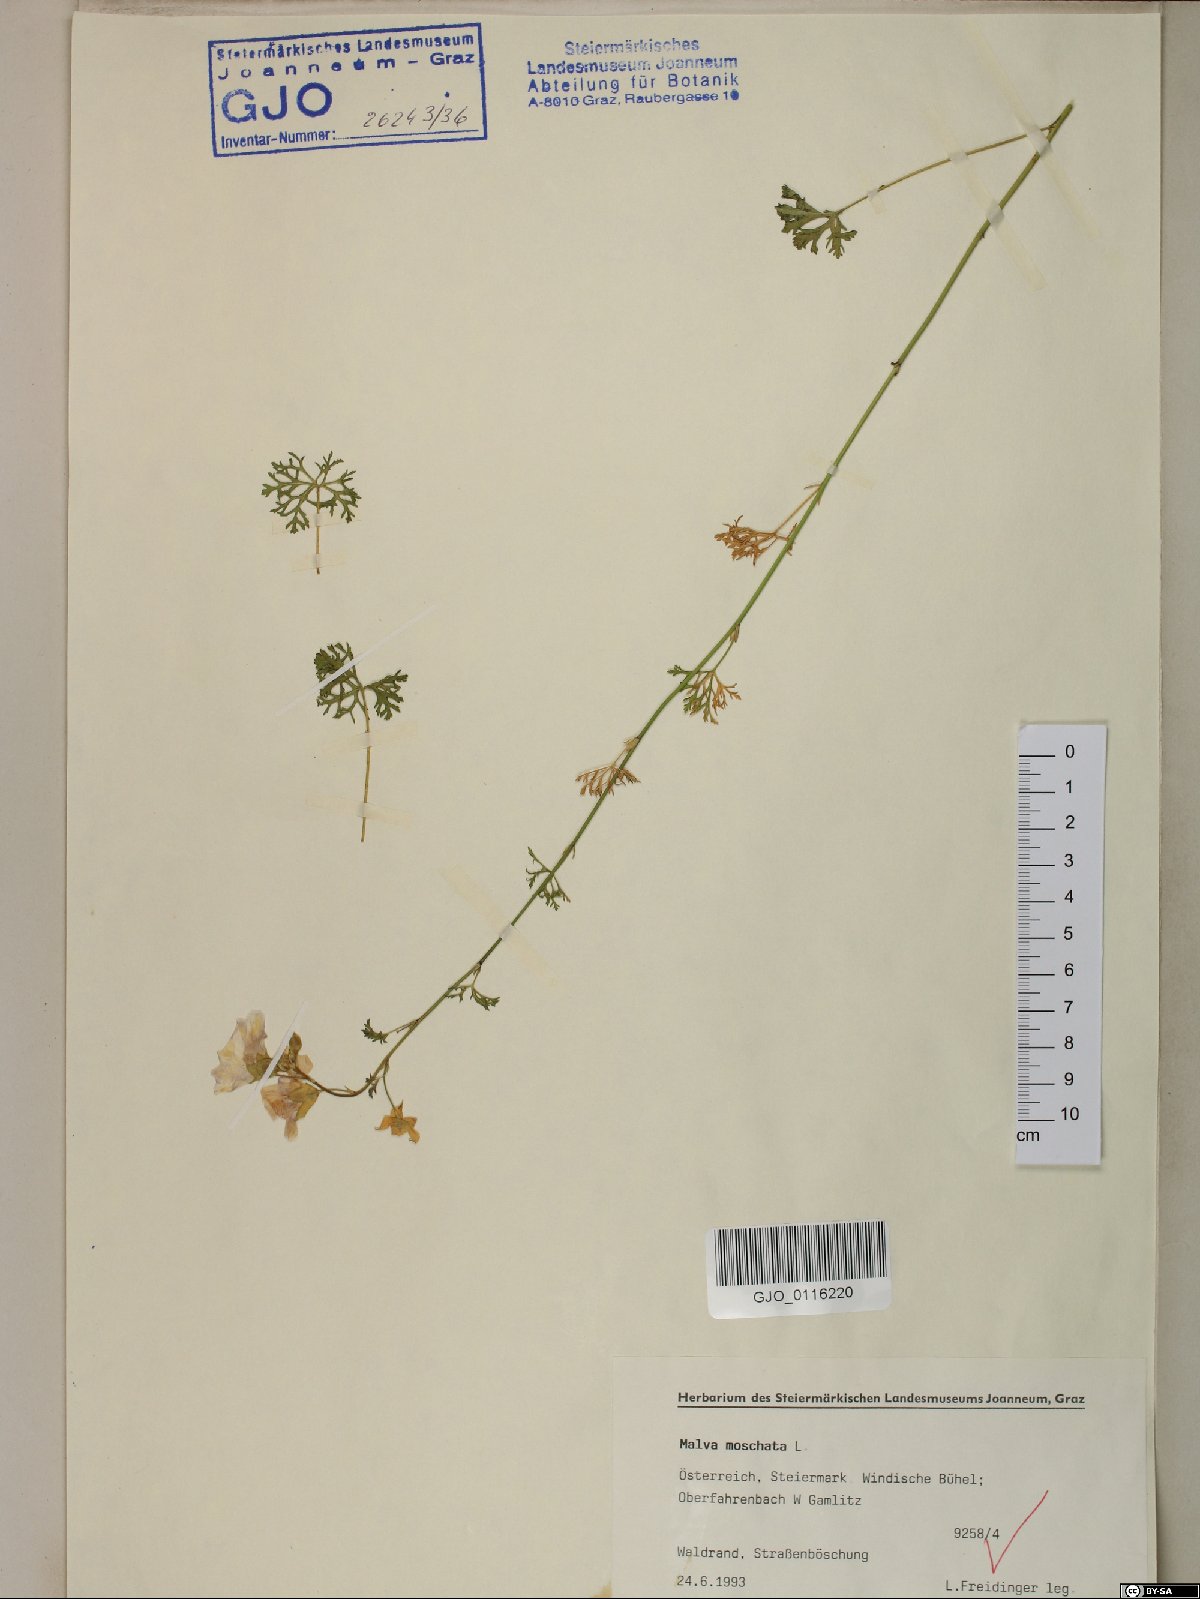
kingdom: Plantae
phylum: Tracheophyta
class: Magnoliopsida
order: Malvales
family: Malvaceae
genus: Malva
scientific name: Malva moschata
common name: Musk mallow
